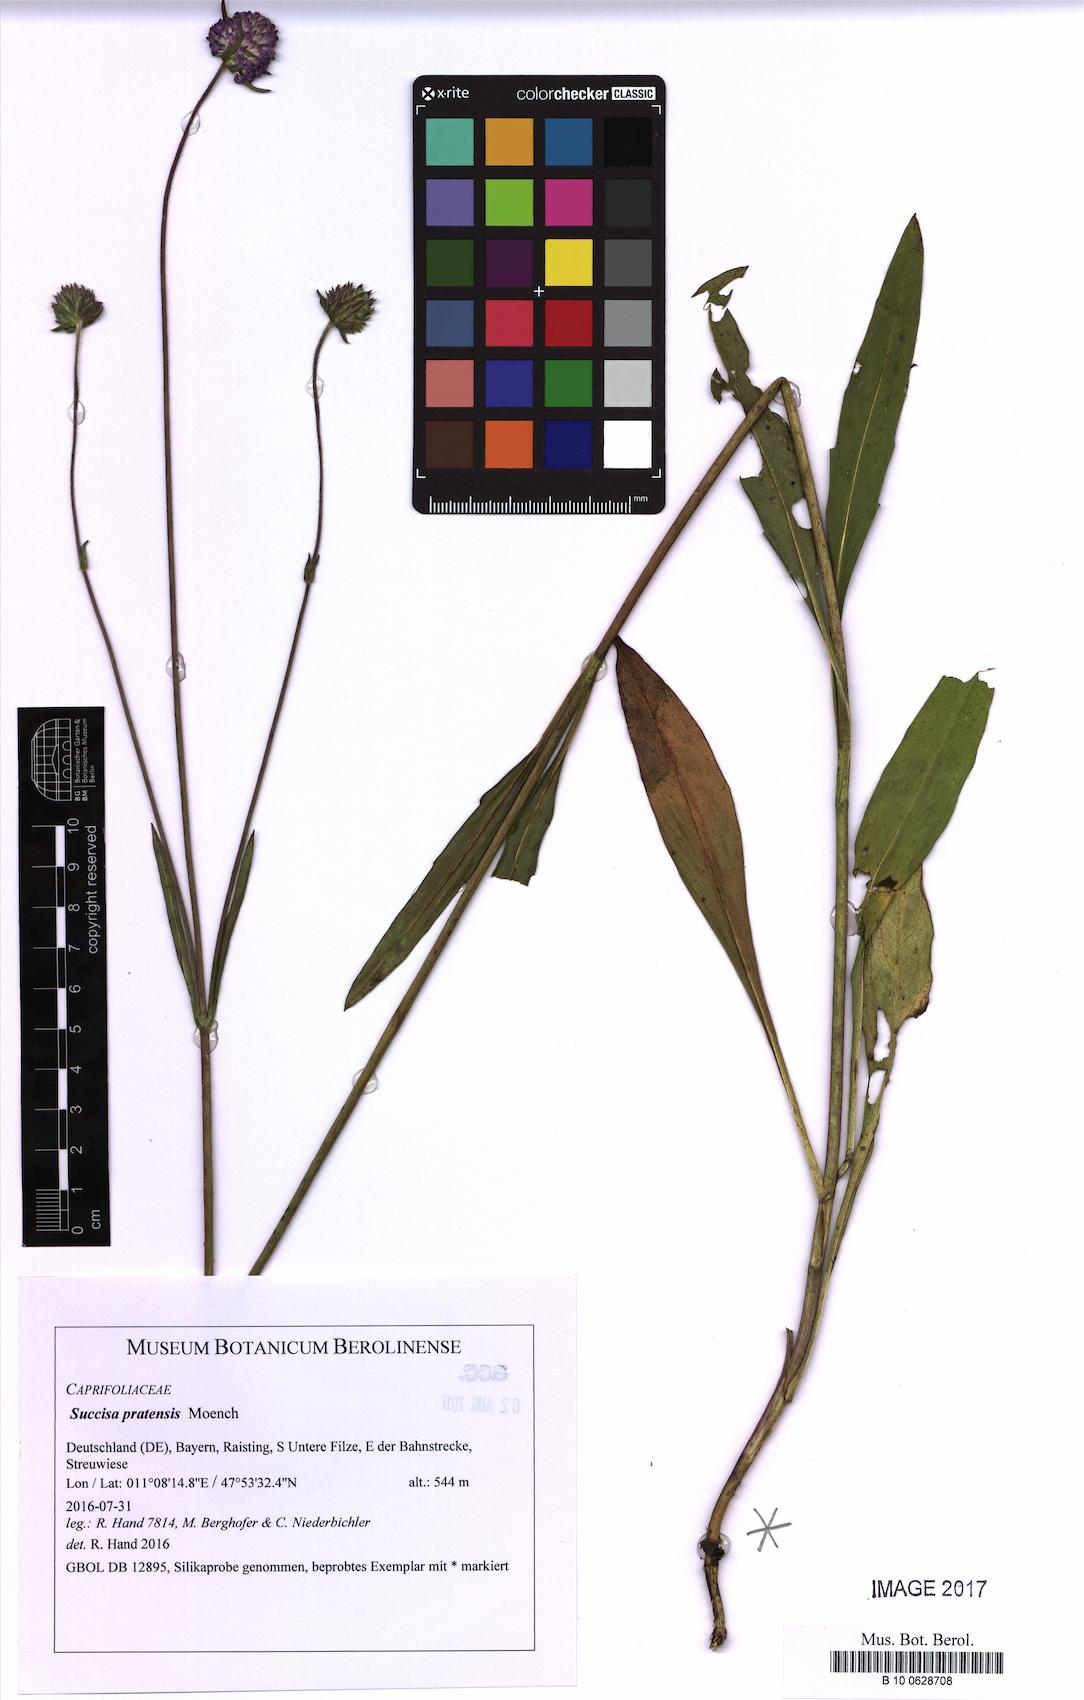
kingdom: Plantae
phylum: Tracheophyta
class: Magnoliopsida
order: Dipsacales
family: Caprifoliaceae
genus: Succisa
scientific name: Succisa pratensis
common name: Devil's-bit
